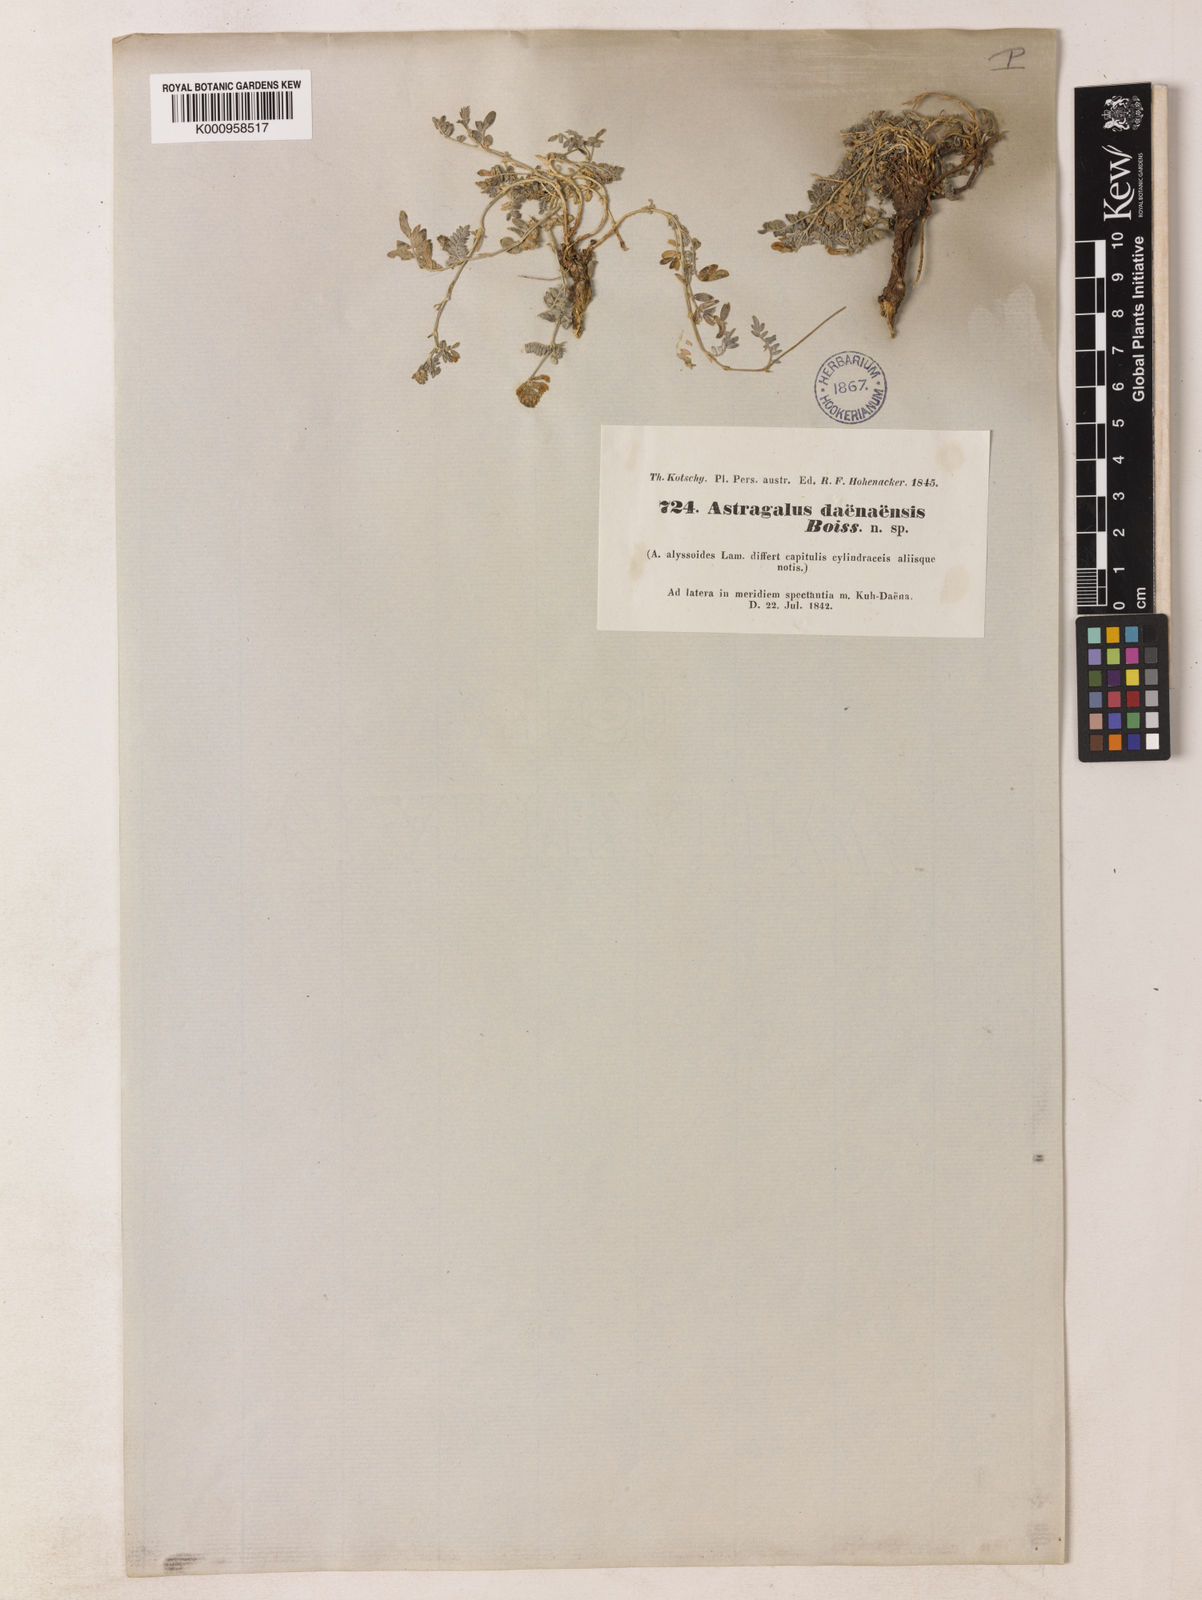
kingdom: Plantae
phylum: Tracheophyta
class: Magnoliopsida
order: Fabales
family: Fabaceae
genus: Astragalus
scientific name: Astragalus daenensis
